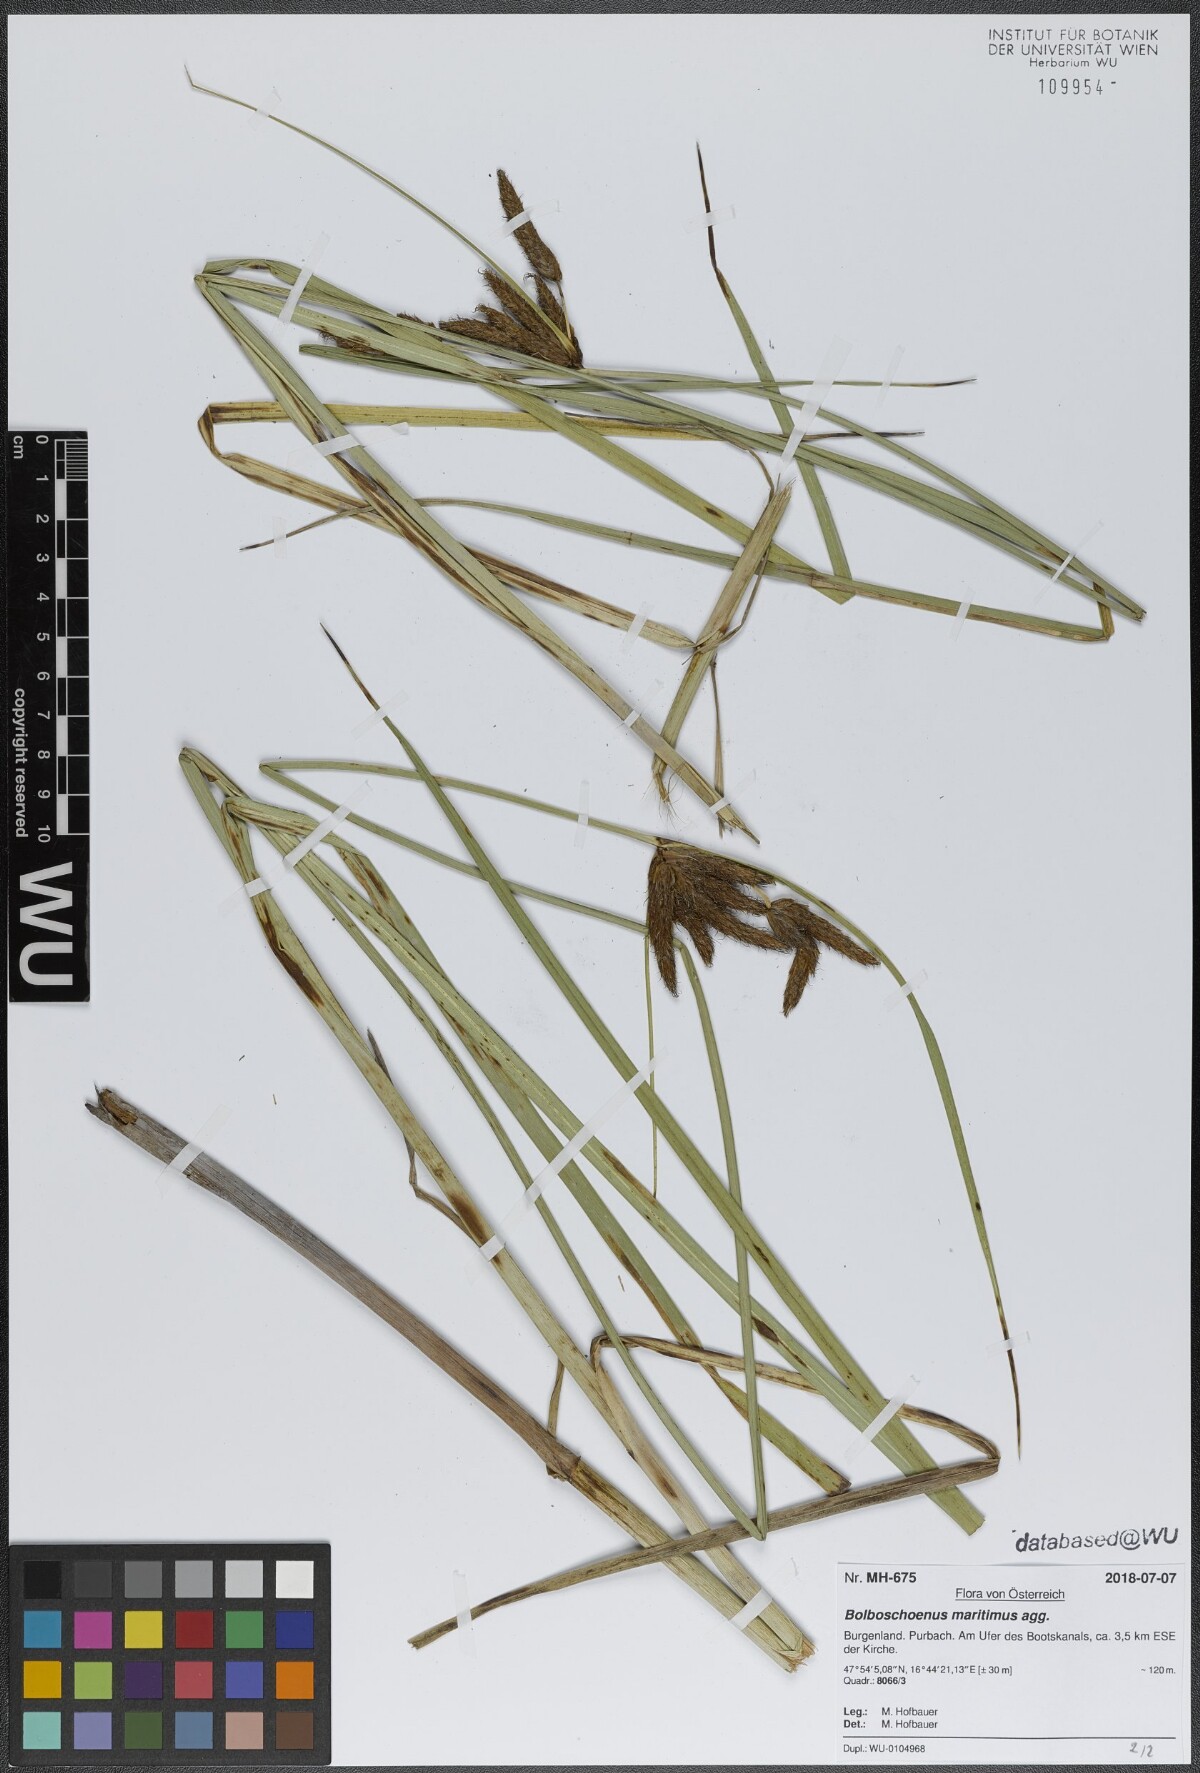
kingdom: Plantae
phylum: Tracheophyta
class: Liliopsida
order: Poales
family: Cyperaceae
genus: Bolboschoenus
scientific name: Bolboschoenus maritimus
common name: Sea club-rush
